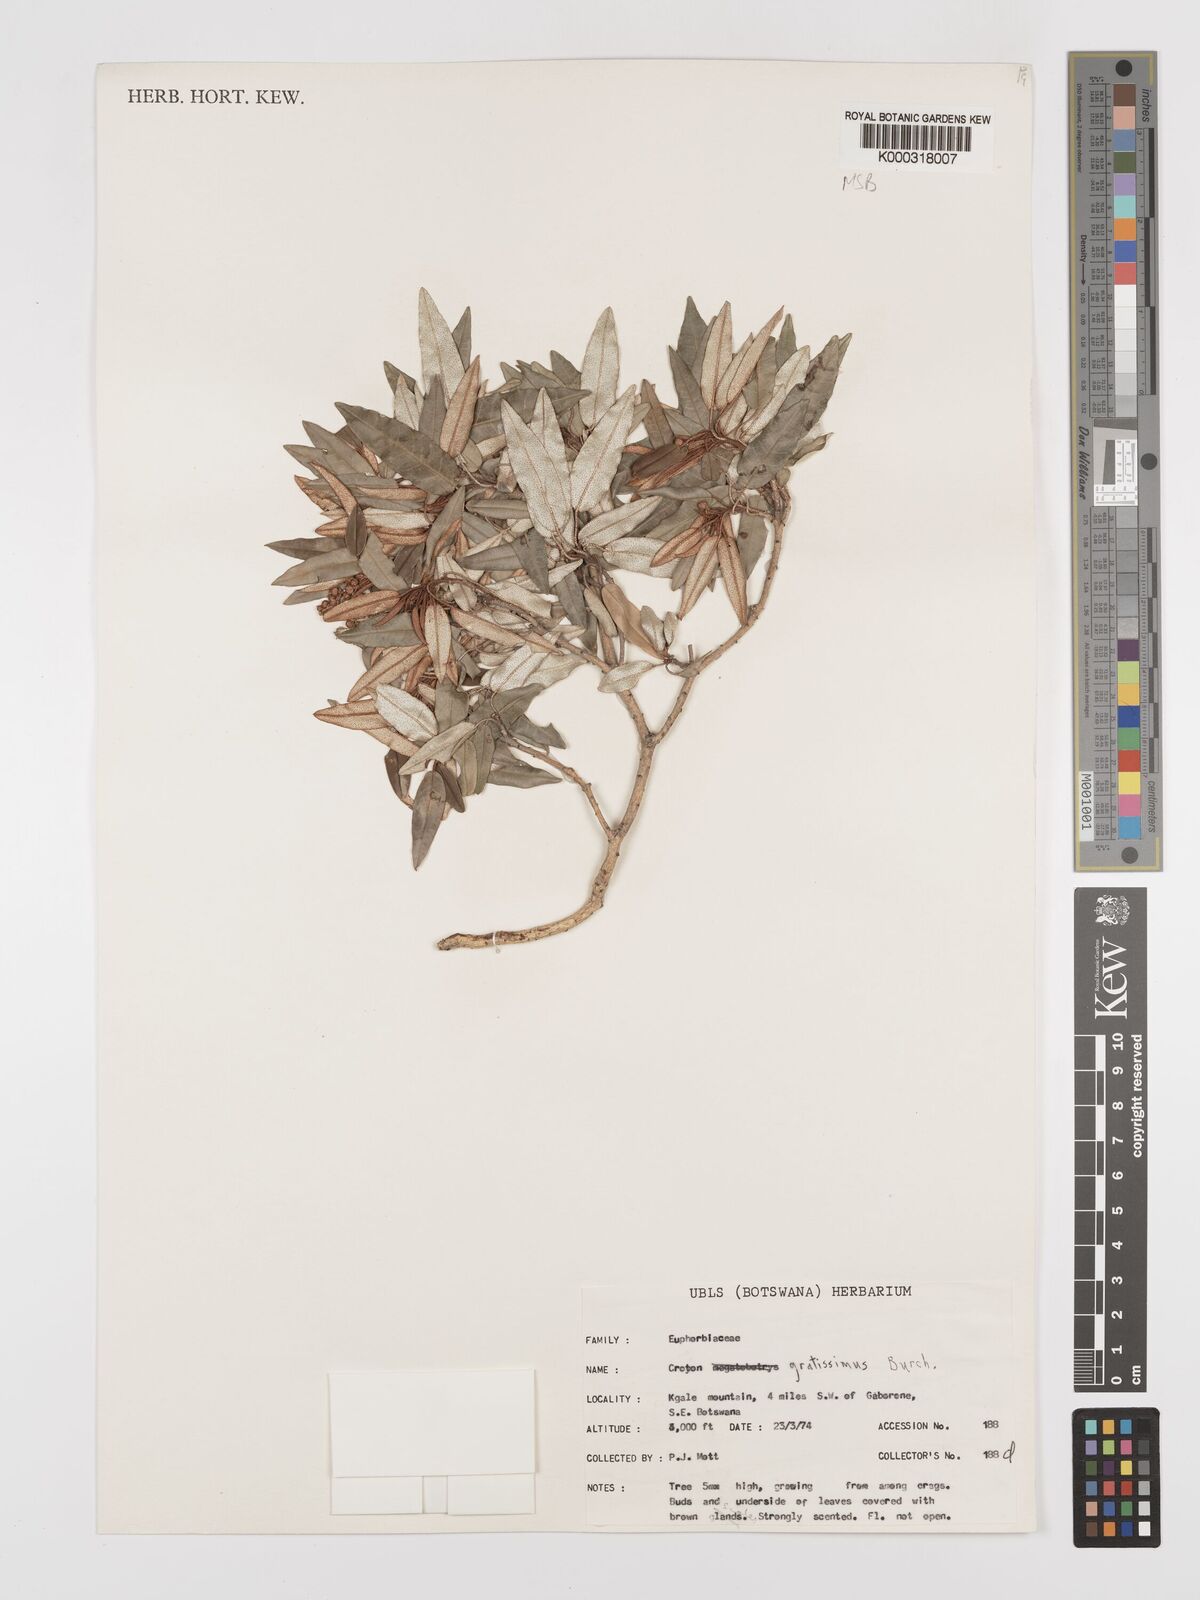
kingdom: Plantae
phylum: Tracheophyta
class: Magnoliopsida
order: Malpighiales
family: Euphorbiaceae
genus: Croton
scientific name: Croton gratissimus
